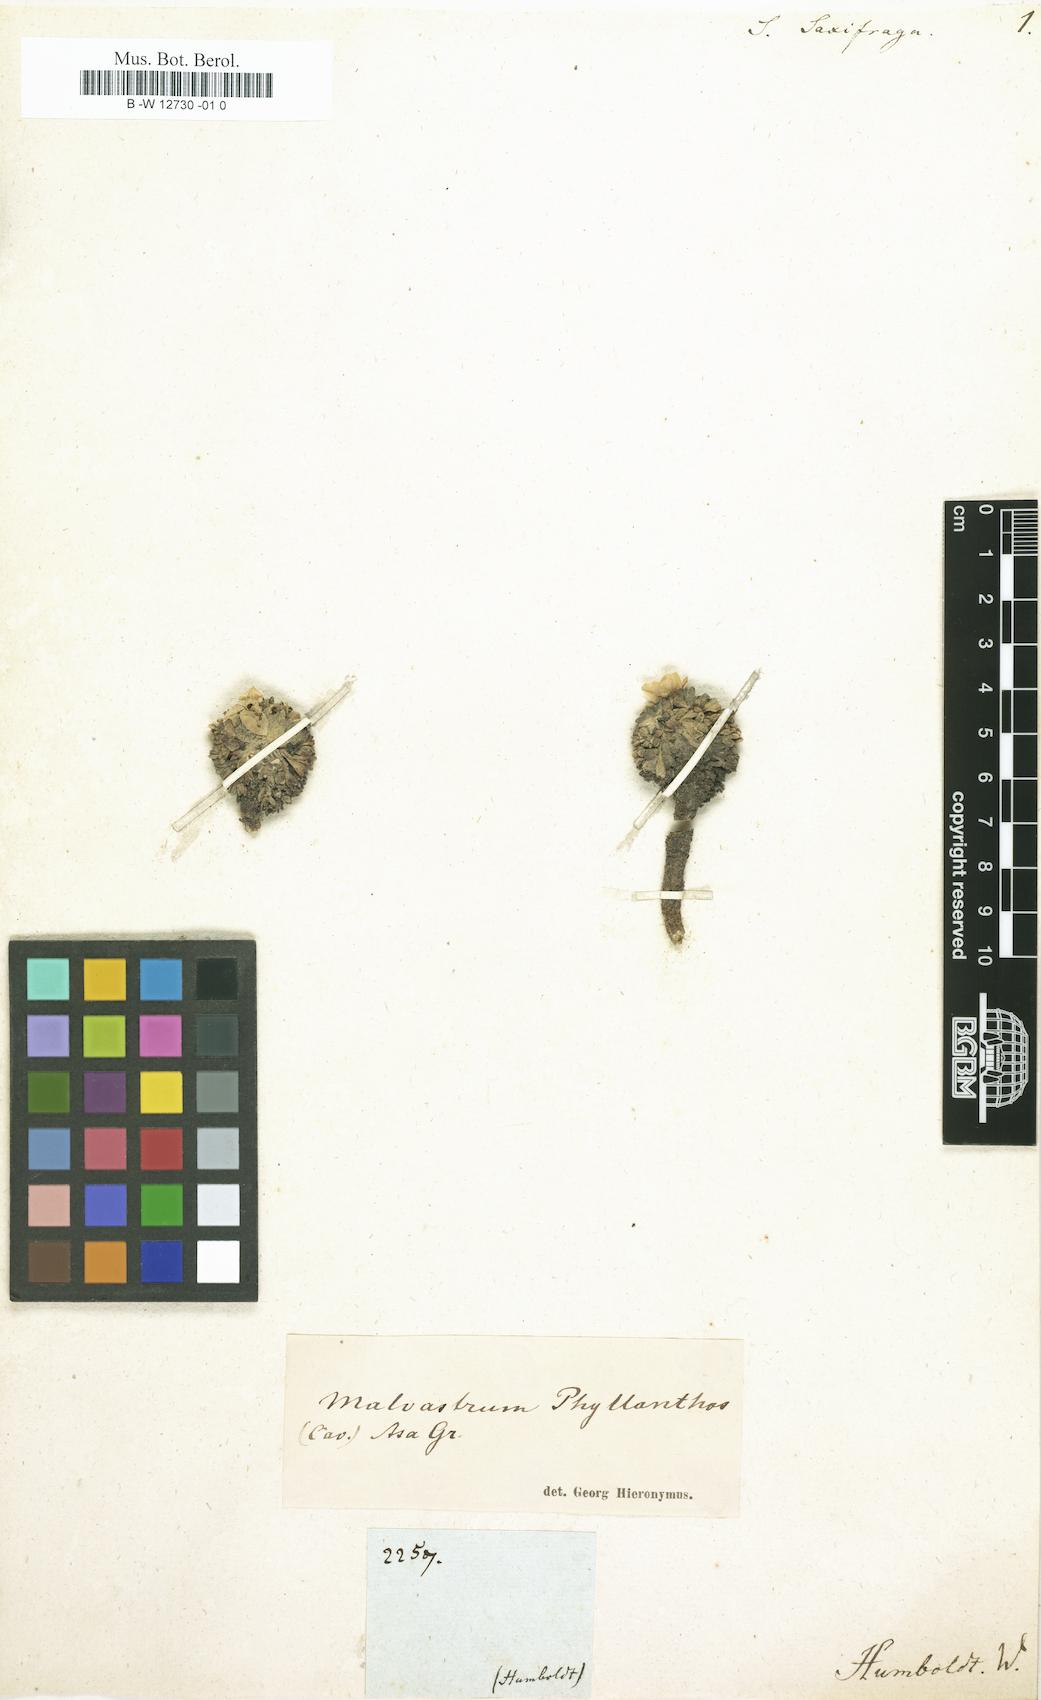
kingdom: Plantae
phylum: Tracheophyta
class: Magnoliopsida
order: Malvales
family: Malvaceae
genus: Nototriche
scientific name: Nototriche phyllanthos
